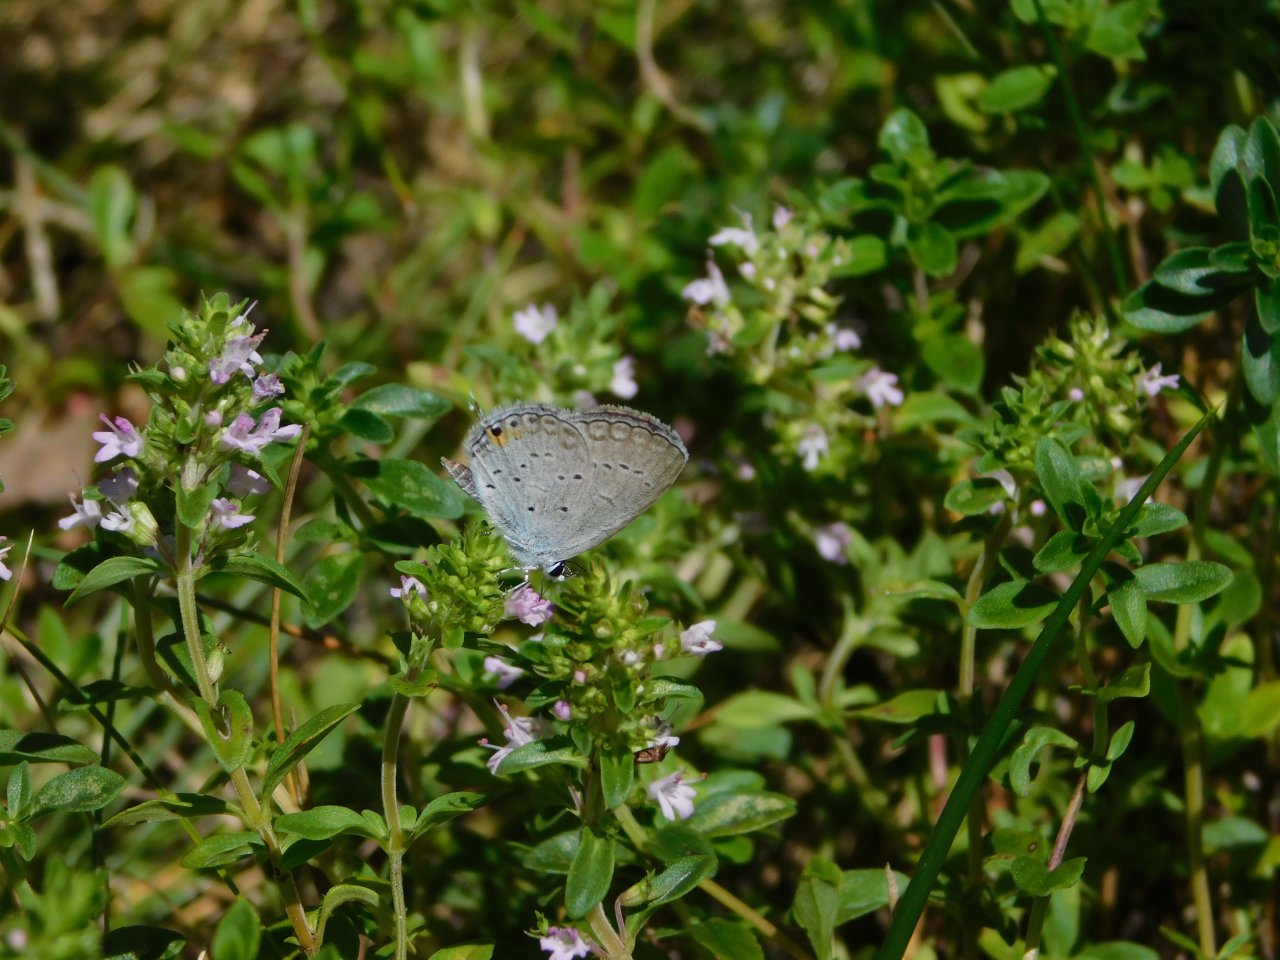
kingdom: Animalia
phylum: Arthropoda
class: Insecta
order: Lepidoptera
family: Lycaenidae
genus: Elkalyce
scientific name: Elkalyce comyntas
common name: Eastern Tailed-Blue
